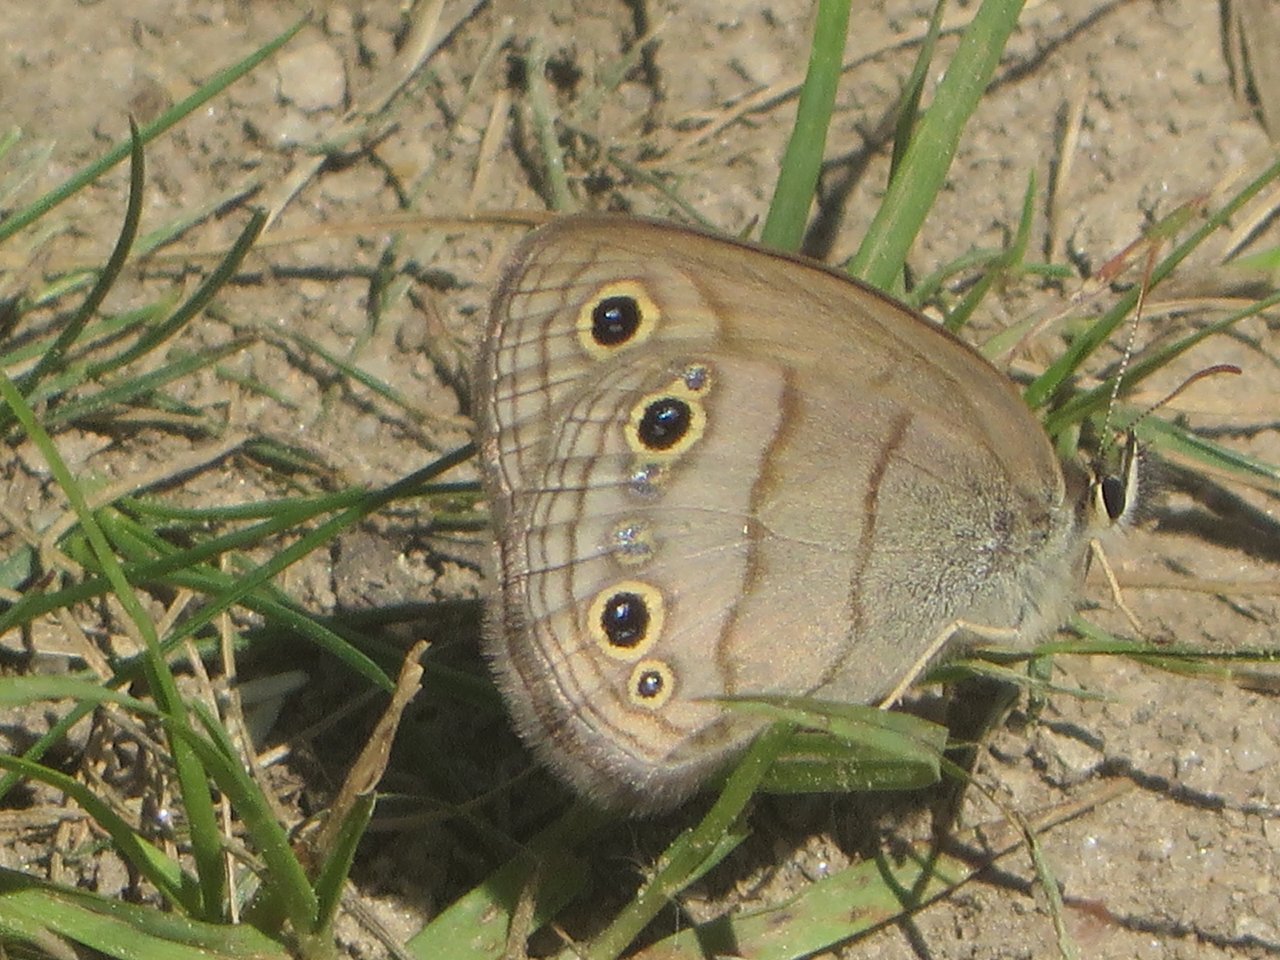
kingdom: Animalia
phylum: Arthropoda
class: Insecta
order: Lepidoptera
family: Nymphalidae
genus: Euptychia
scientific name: Euptychia cymela
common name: Little Wood Satyr
